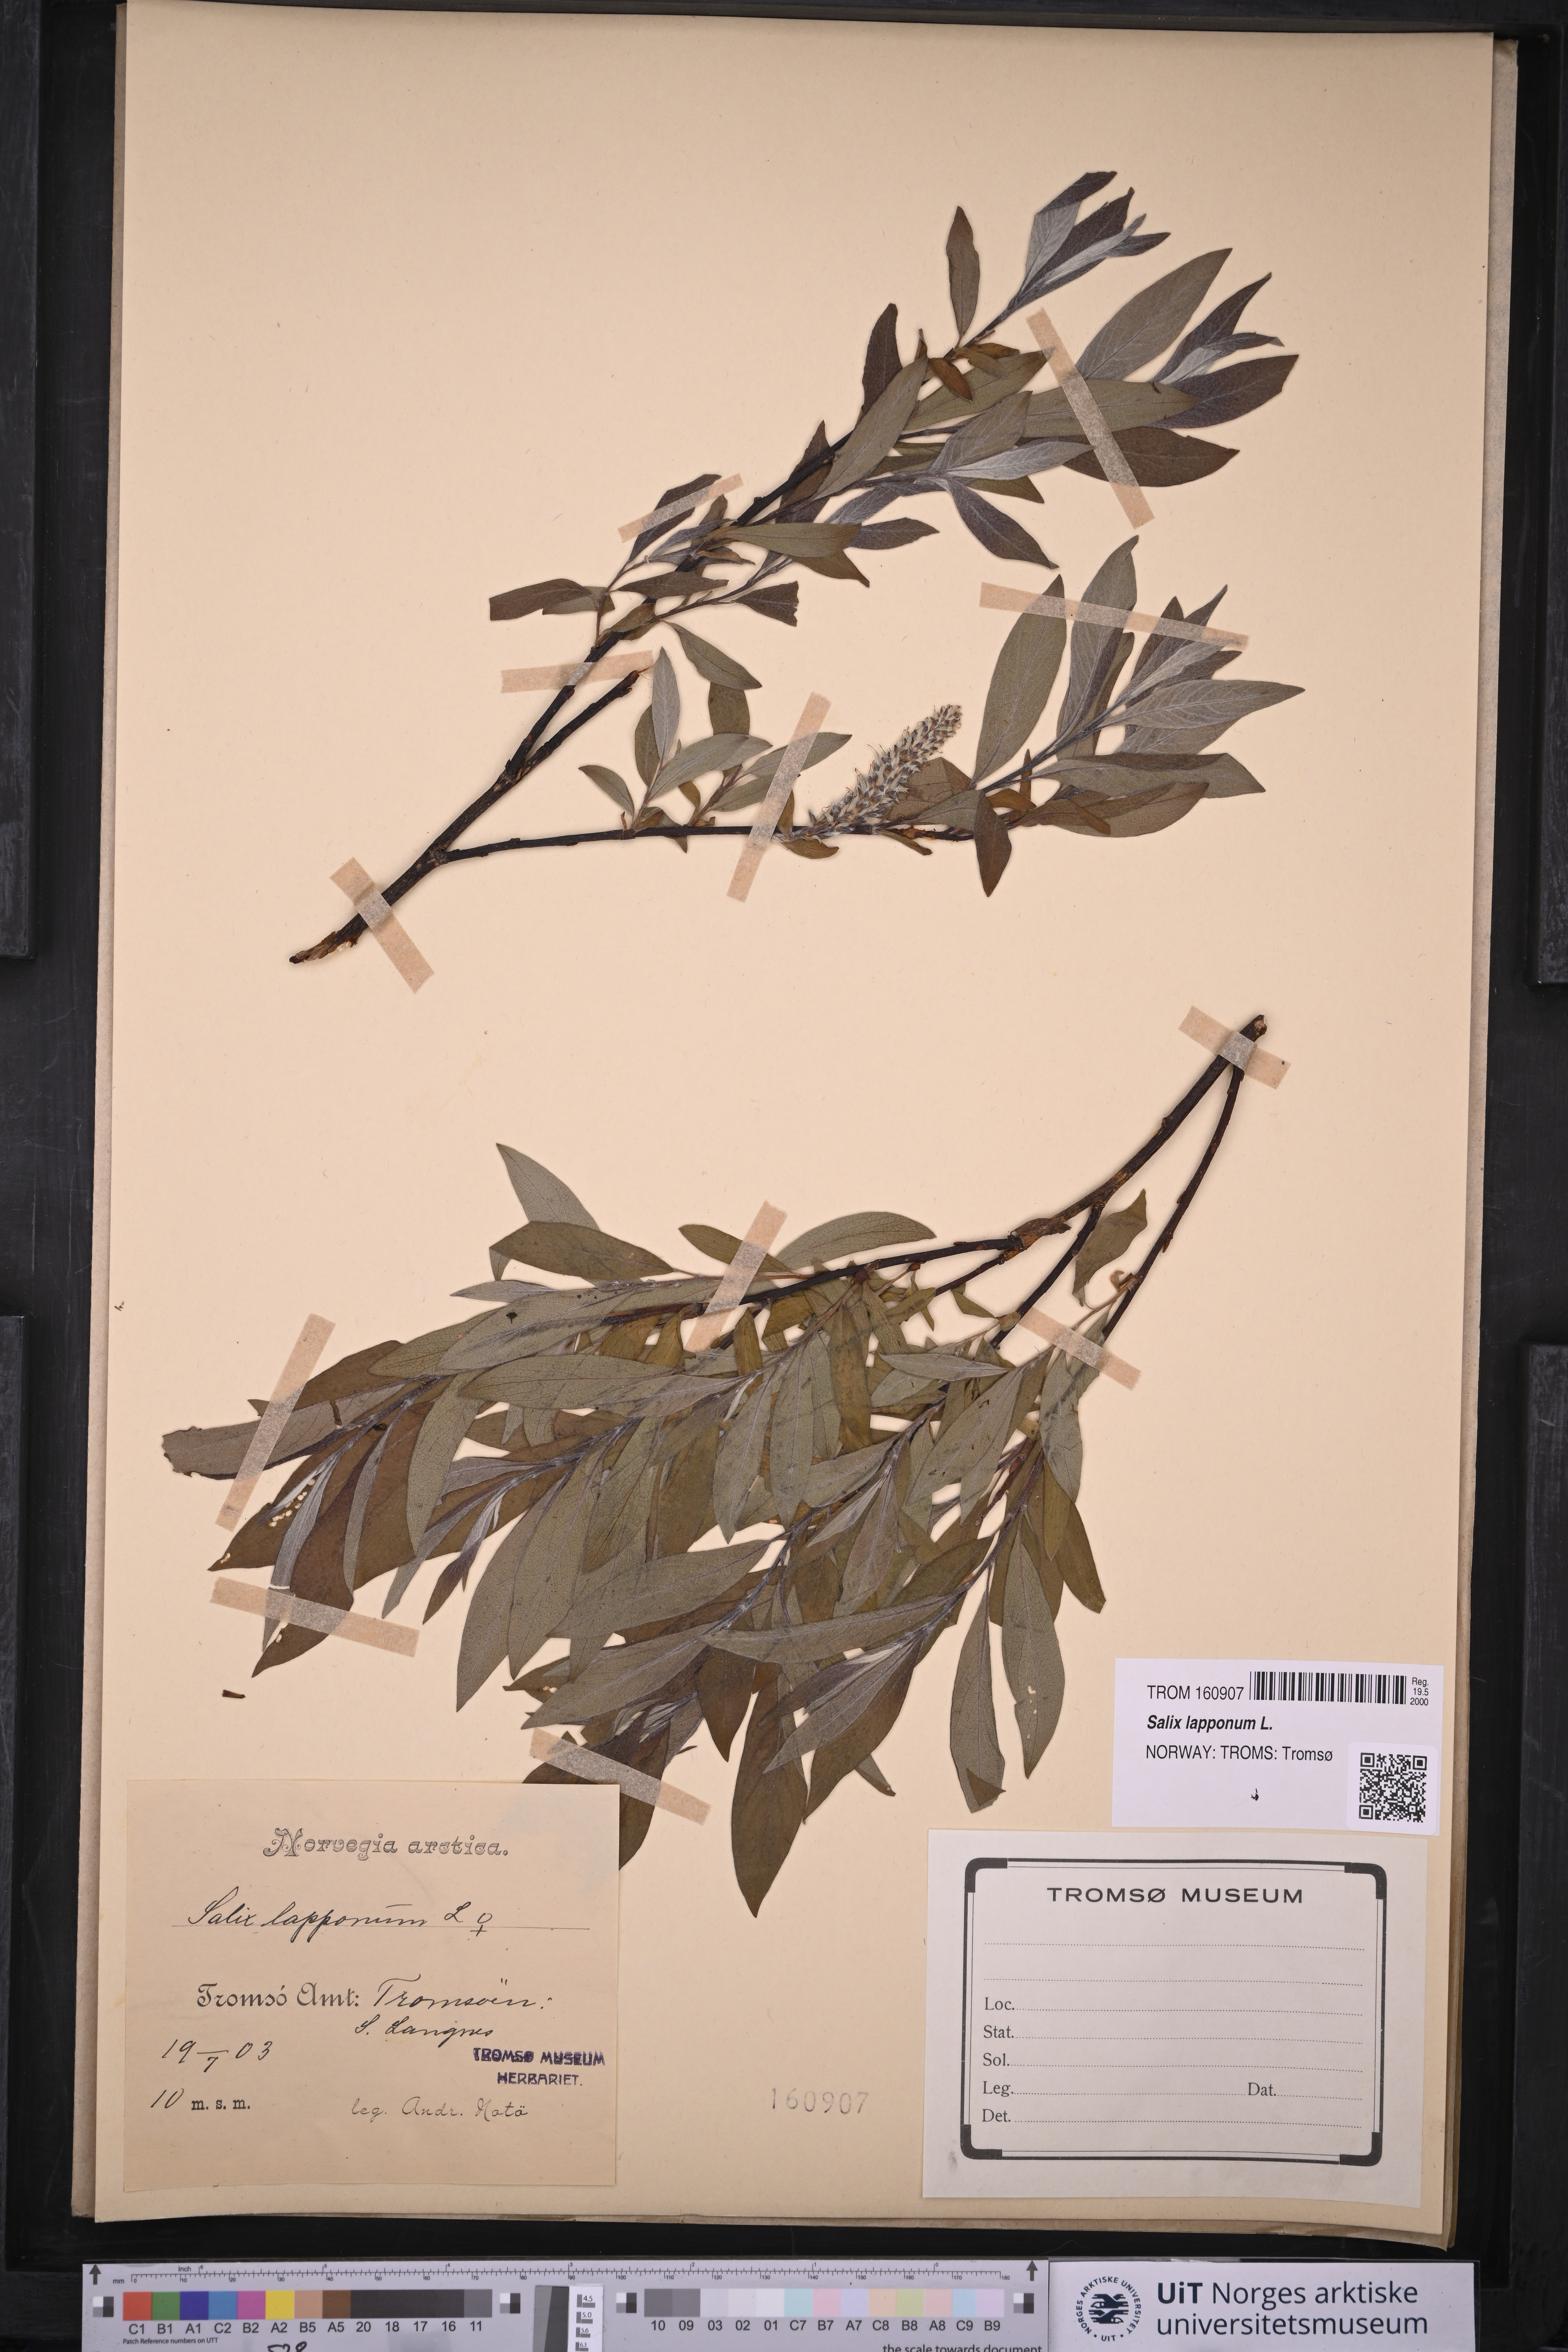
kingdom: Plantae
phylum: Tracheophyta
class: Magnoliopsida
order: Malpighiales
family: Salicaceae
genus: Salix
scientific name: Salix lapponum
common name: Downy willow
